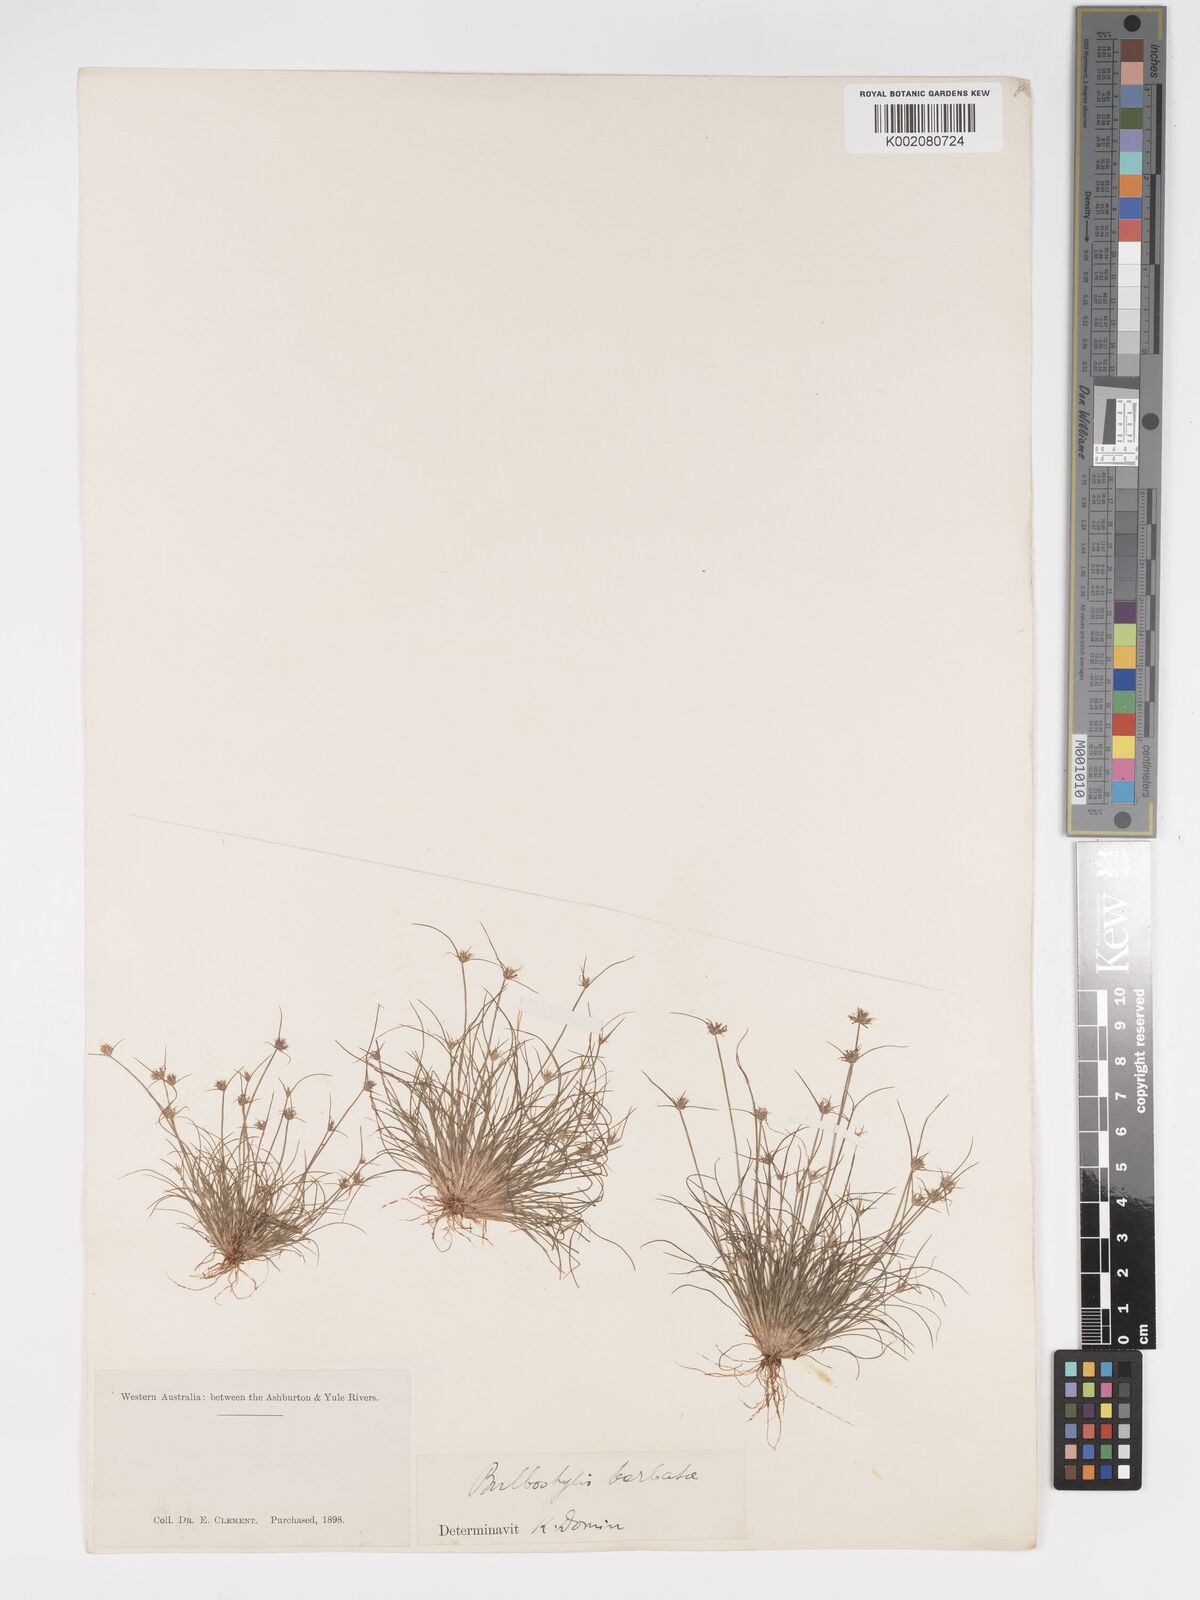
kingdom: Plantae
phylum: Tracheophyta
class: Liliopsida
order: Poales
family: Cyperaceae
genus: Bulbostylis
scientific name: Bulbostylis barbata
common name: Watergrass
